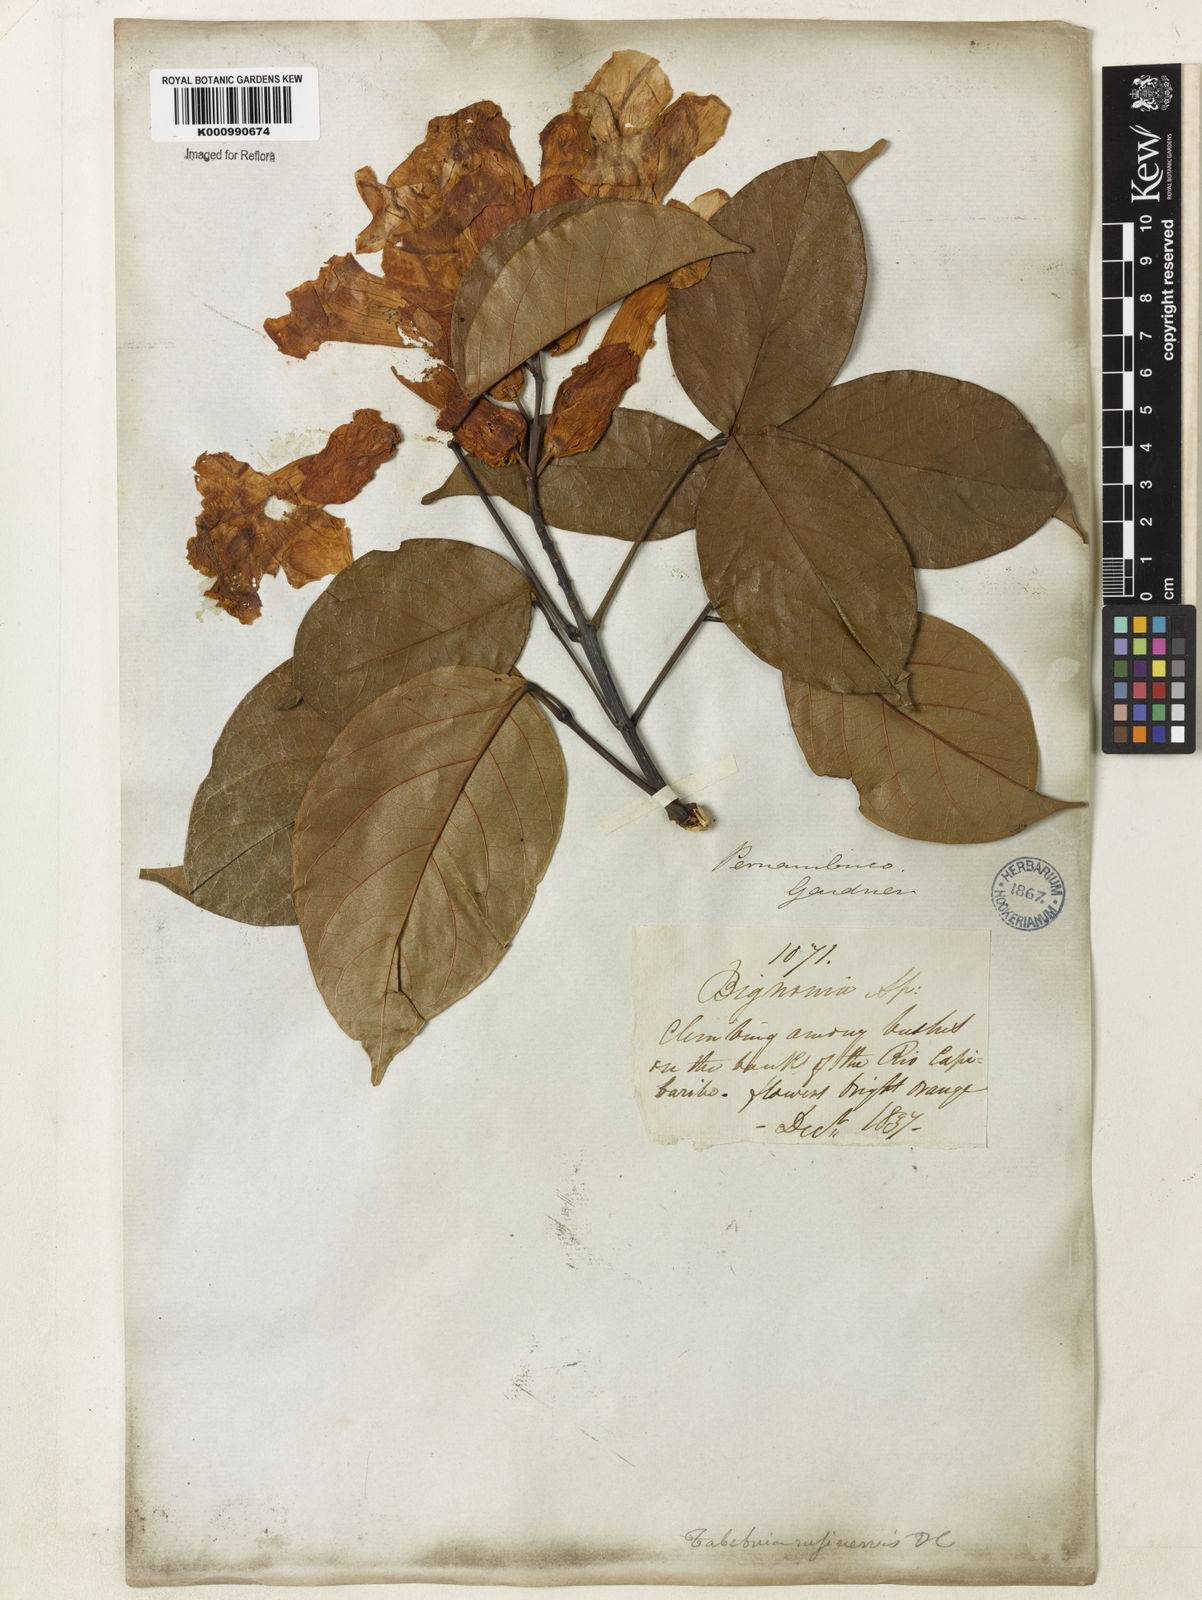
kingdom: Plantae
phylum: Tracheophyta
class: Magnoliopsida
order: Lamiales
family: Bignoniaceae
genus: Callichlamys
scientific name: Callichlamys latifolia
